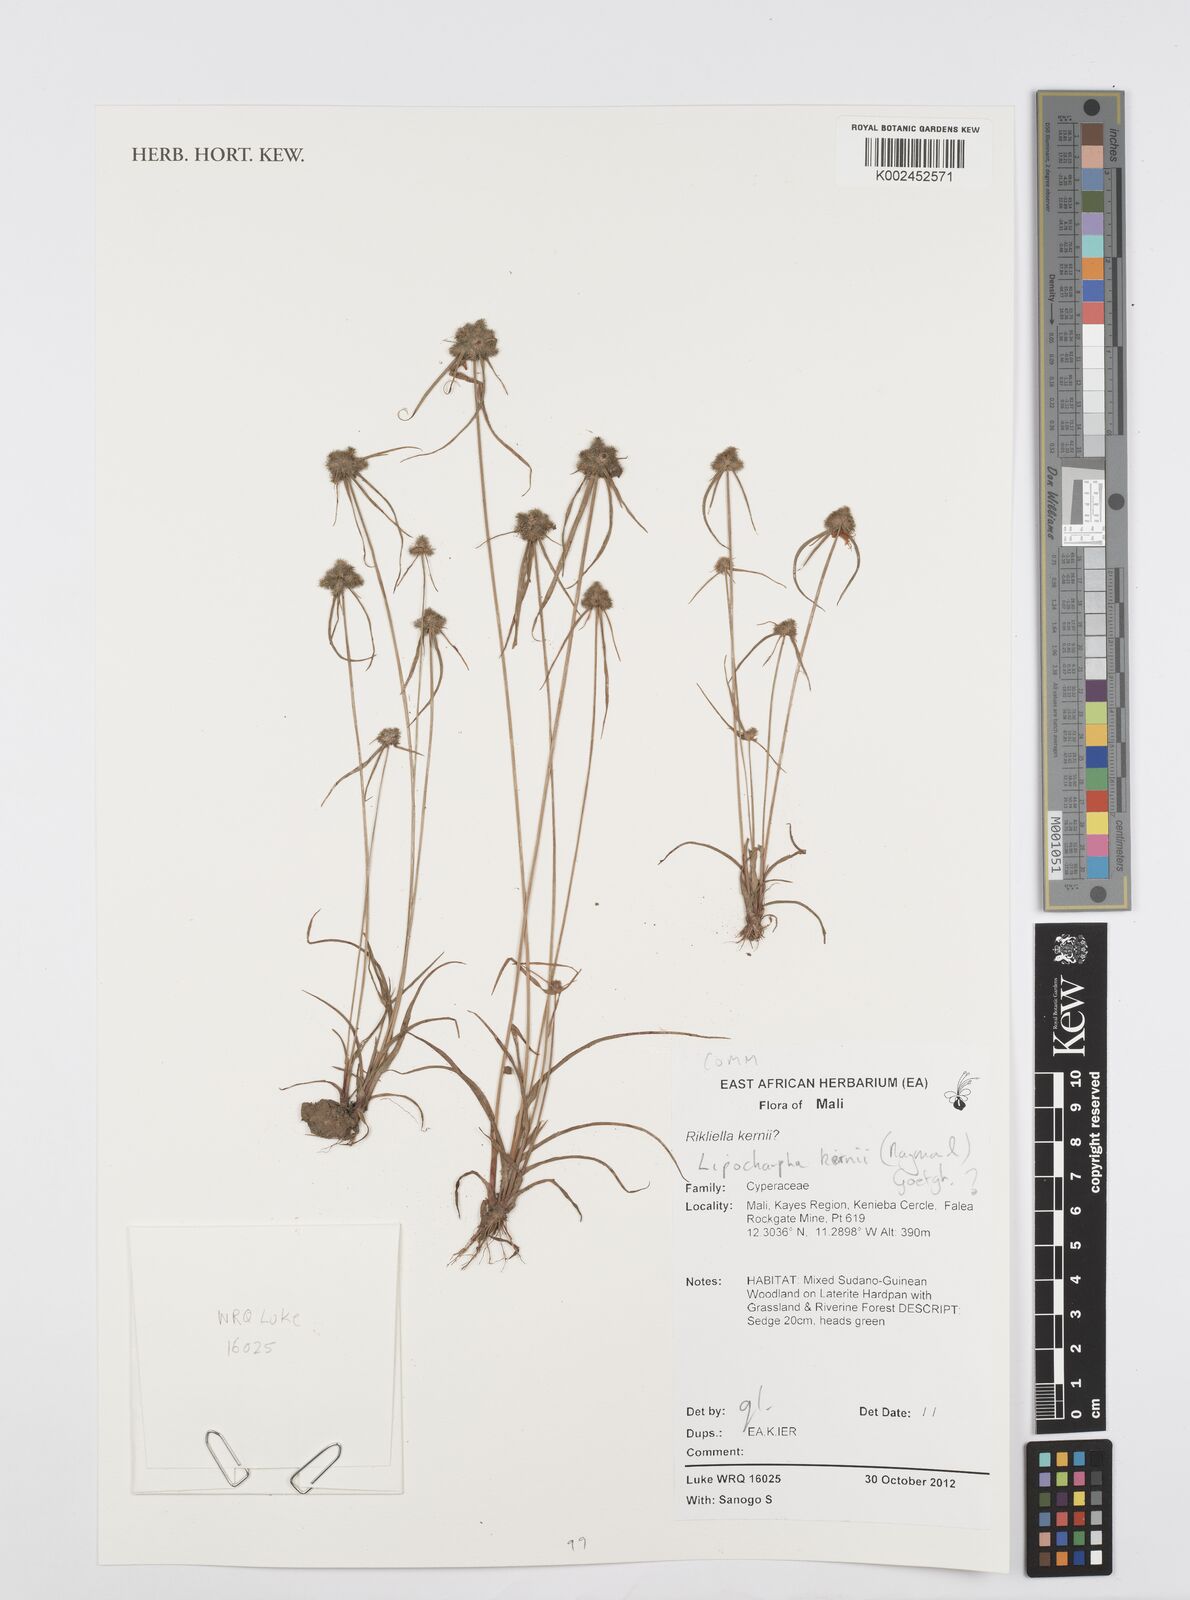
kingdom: Plantae
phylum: Tracheophyta
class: Liliopsida
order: Poales
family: Cyperaceae
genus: Cyperus
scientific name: Cyperus kernii
